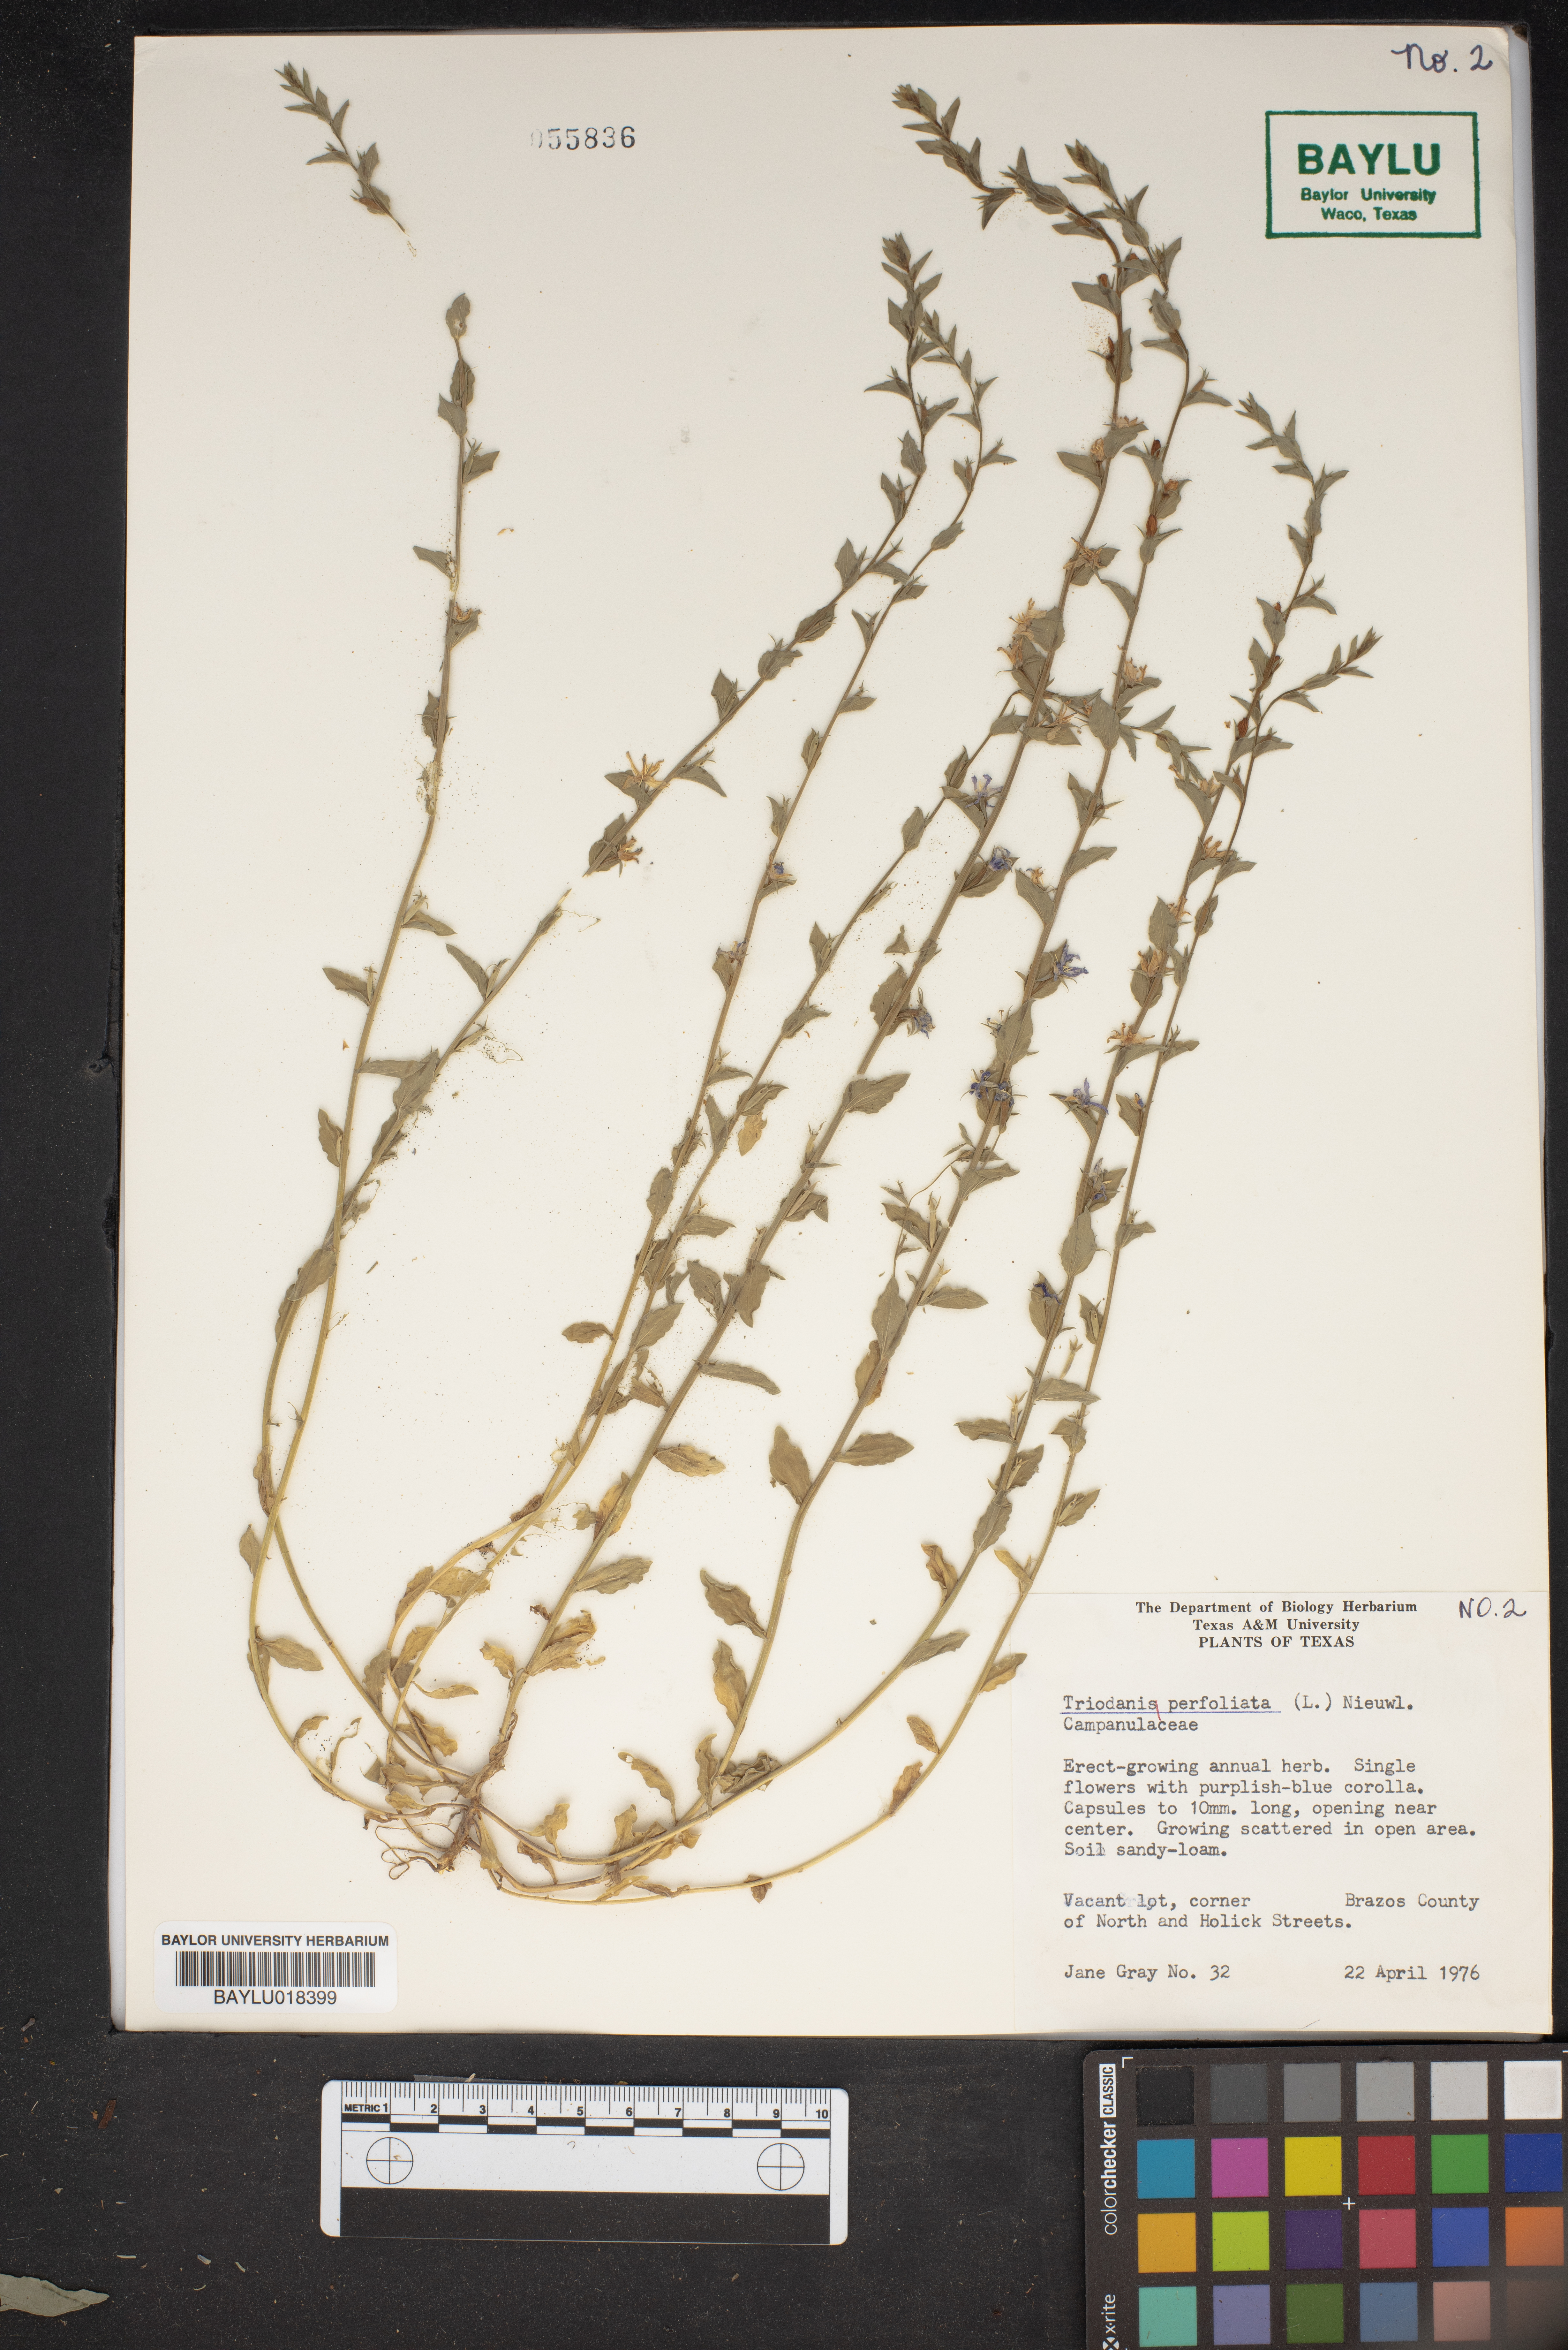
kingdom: Plantae
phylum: Tracheophyta
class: Magnoliopsida
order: Asterales
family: Campanulaceae
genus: Triodanis
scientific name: Triodanis perfoliata
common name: Clasping venus' looking-glass
